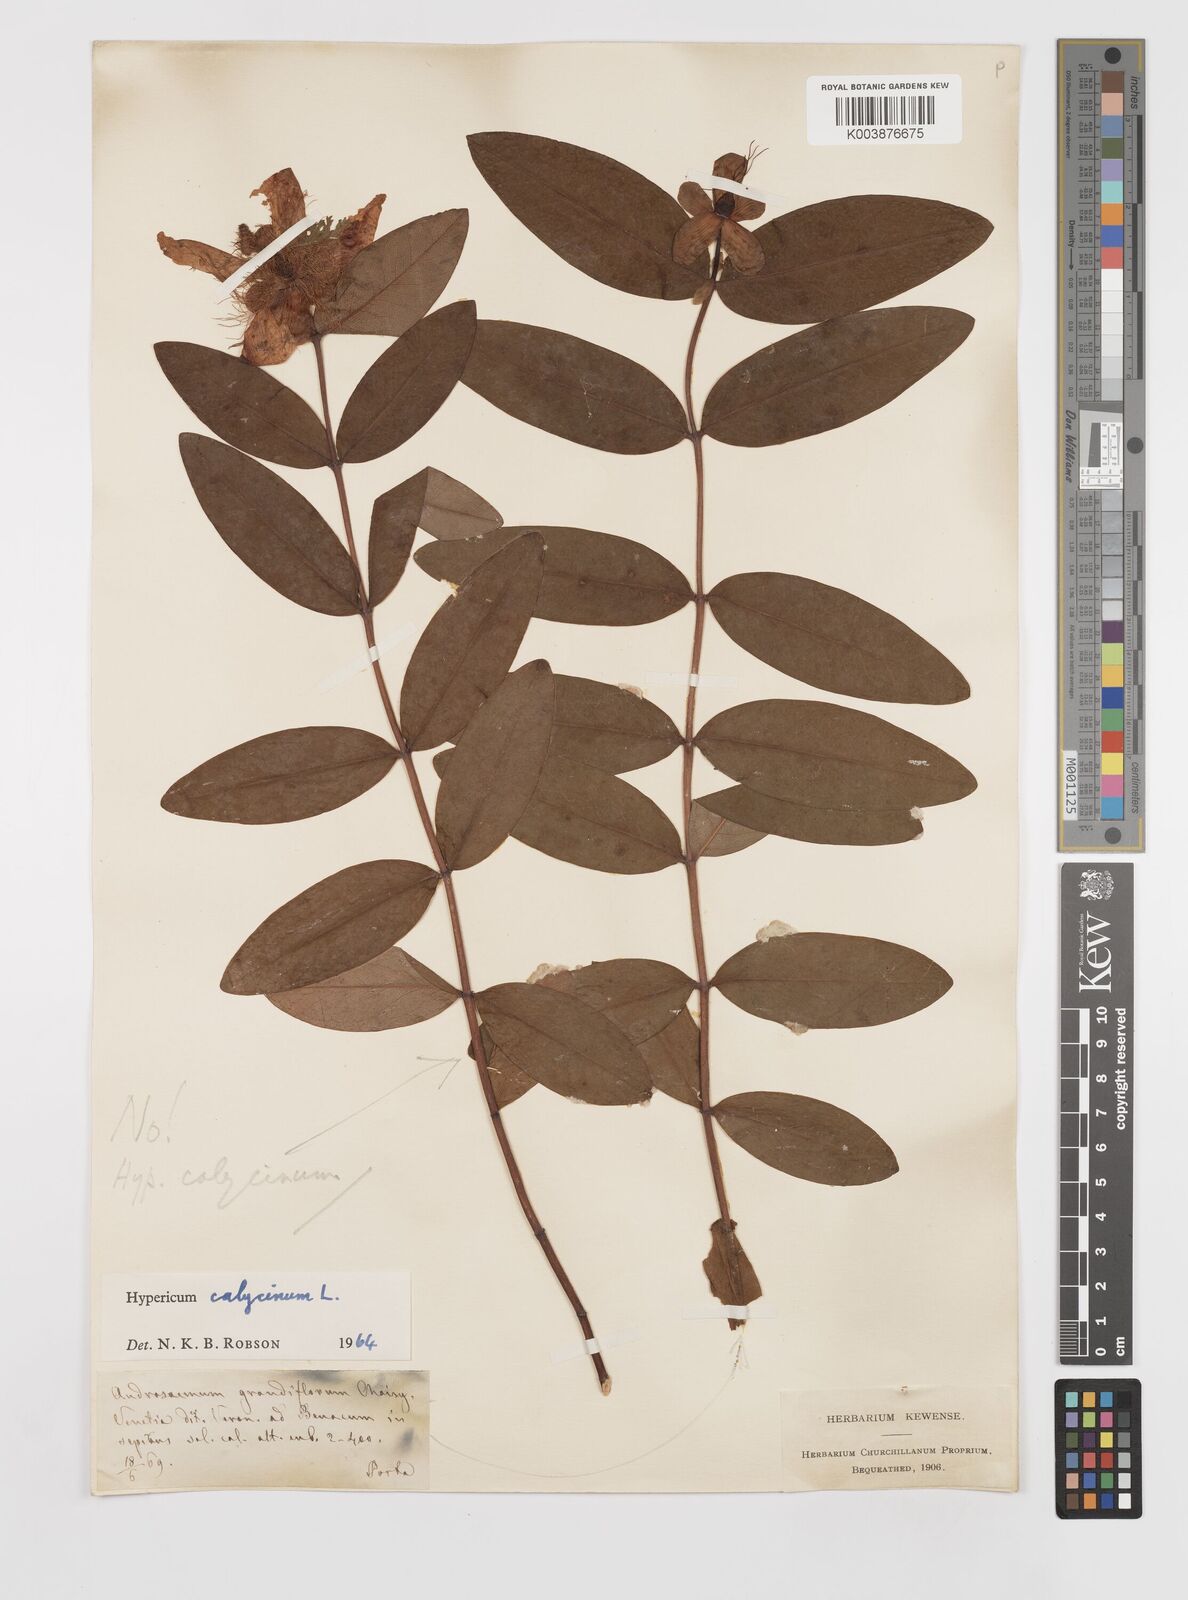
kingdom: Plantae
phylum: Tracheophyta
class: Magnoliopsida
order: Malpighiales
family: Hypericaceae
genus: Hypericum
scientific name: Hypericum calycinum
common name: Rose-of-sharon
